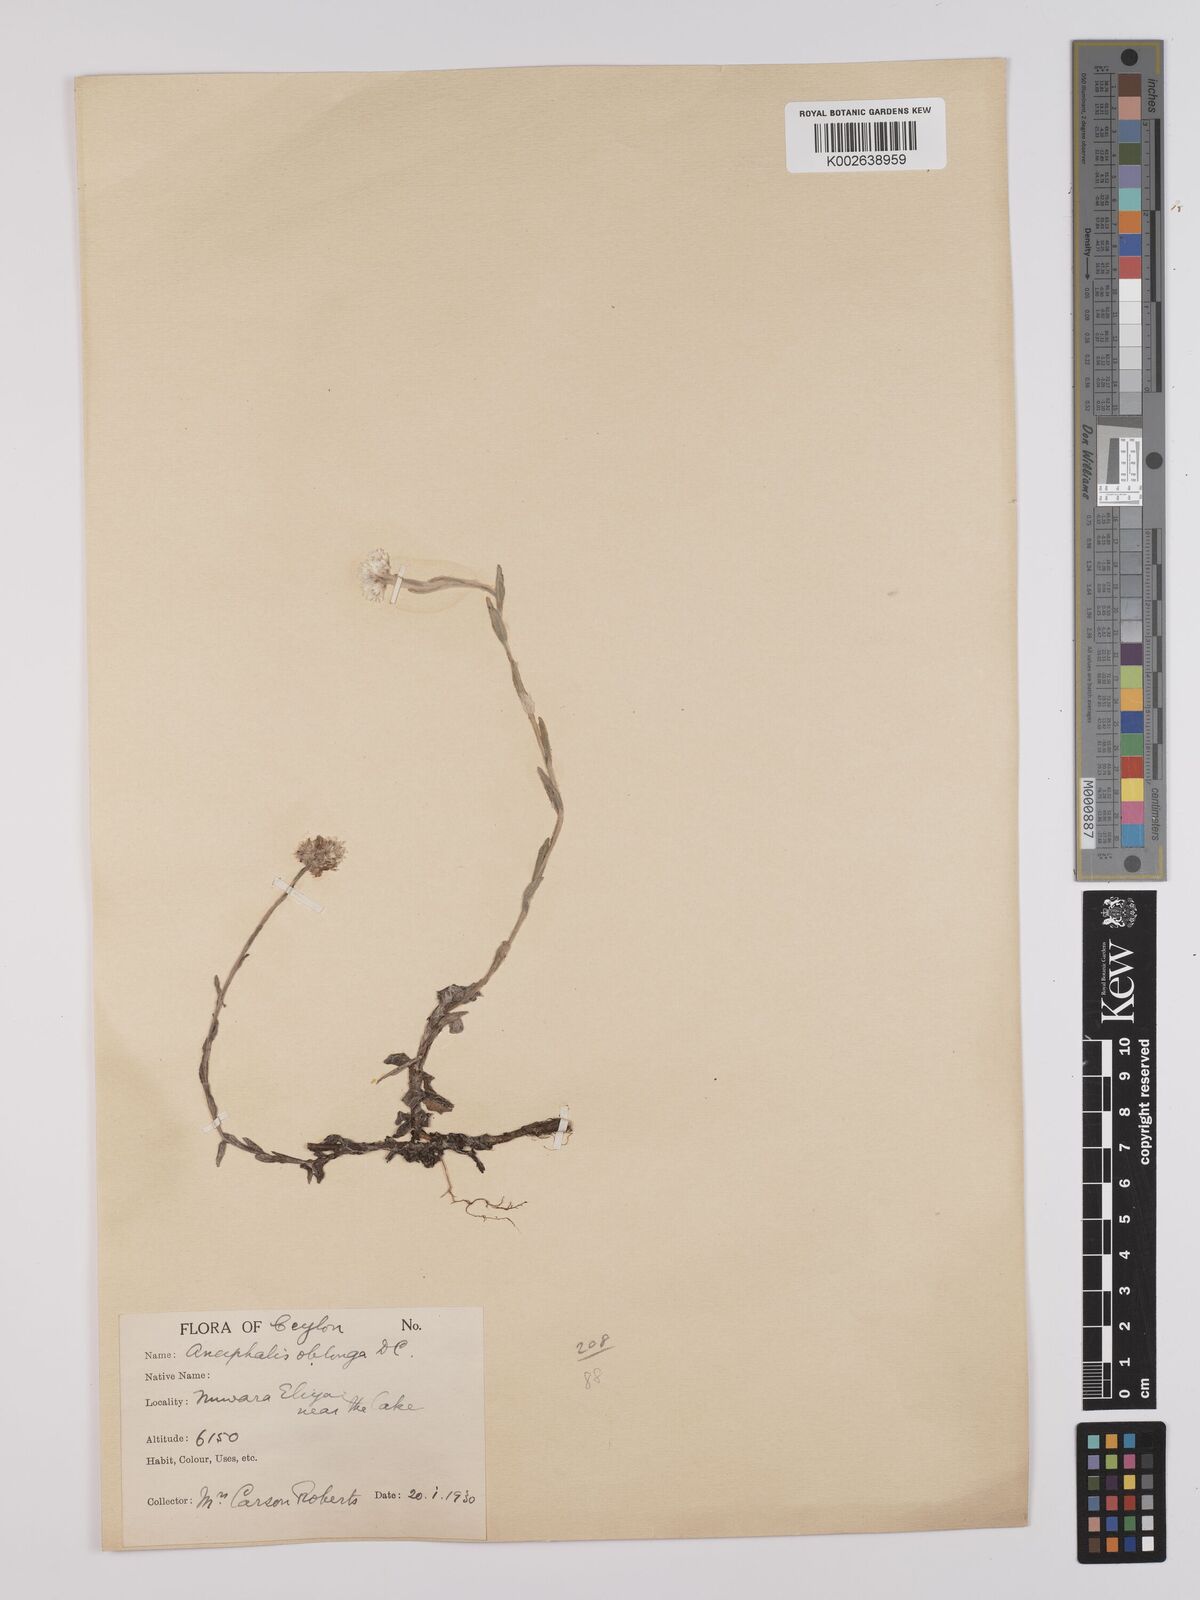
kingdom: Plantae
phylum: Tracheophyta
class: Magnoliopsida
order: Asterales
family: Asteraceae
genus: Anaphalis
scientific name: Anaphalis subdecurrens
